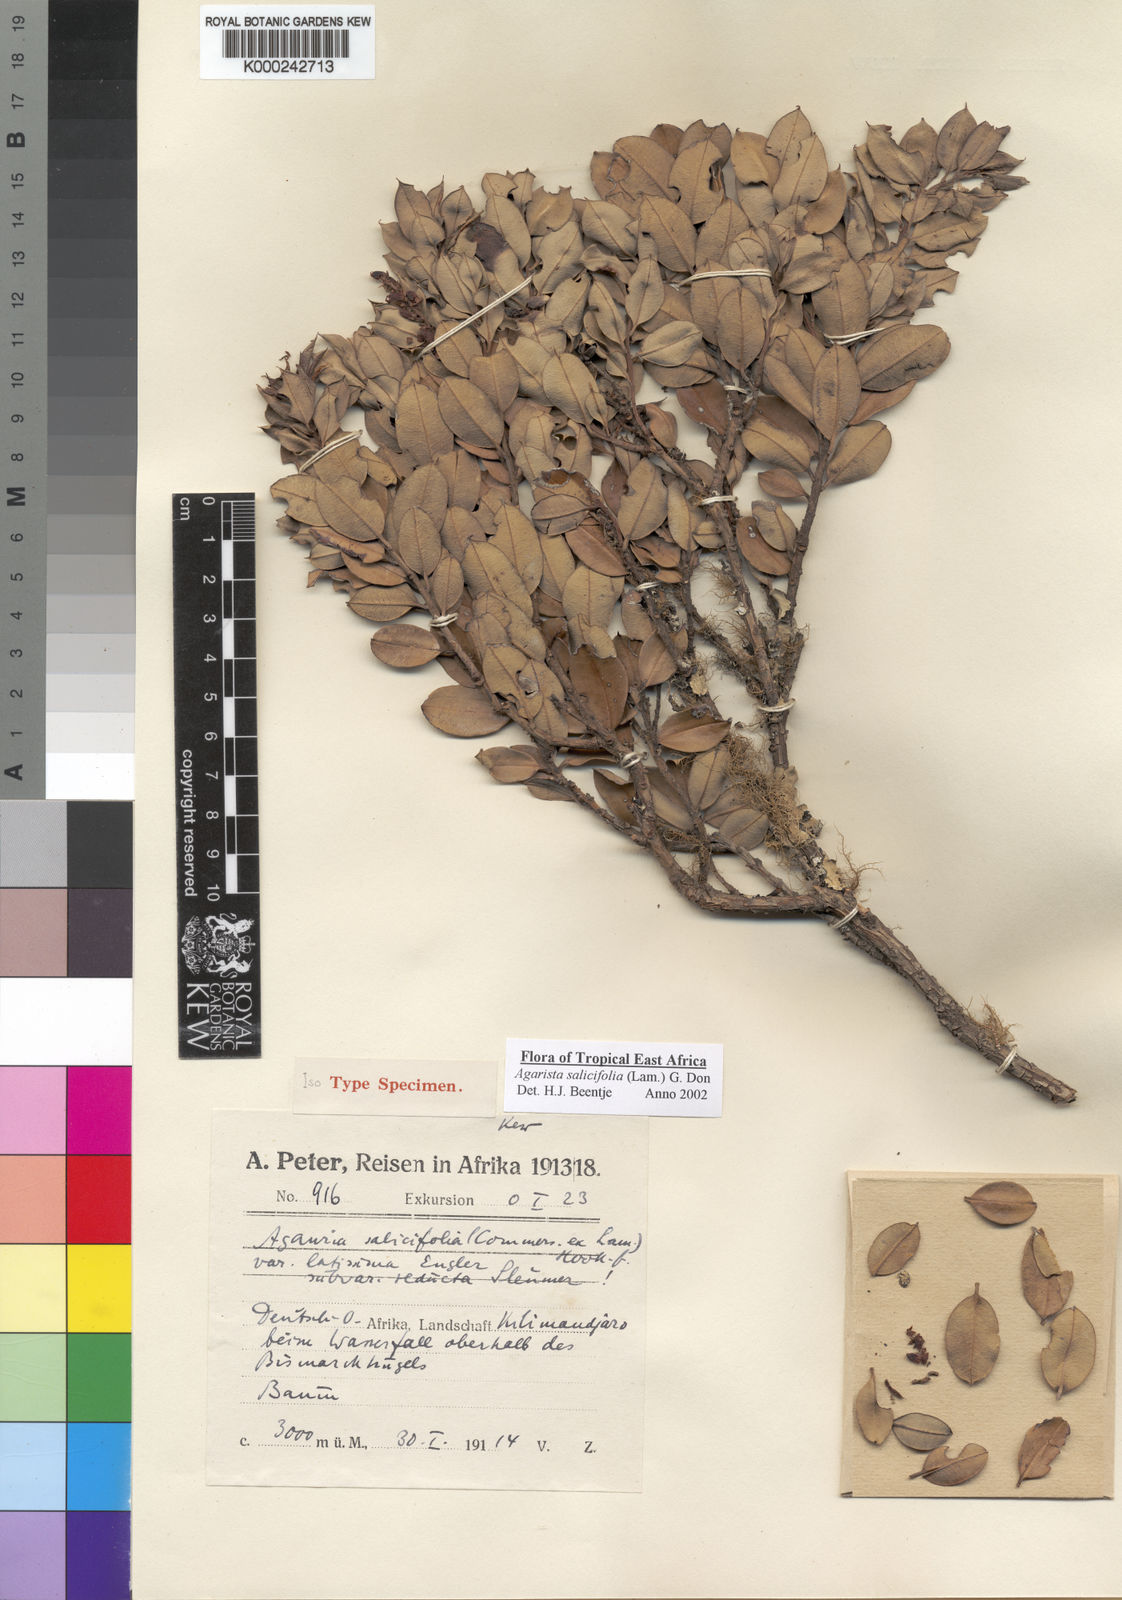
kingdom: Plantae
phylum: Tracheophyta
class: Magnoliopsida
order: Ericales
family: Ericaceae
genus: Agarista
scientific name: Agarista salicifolia
